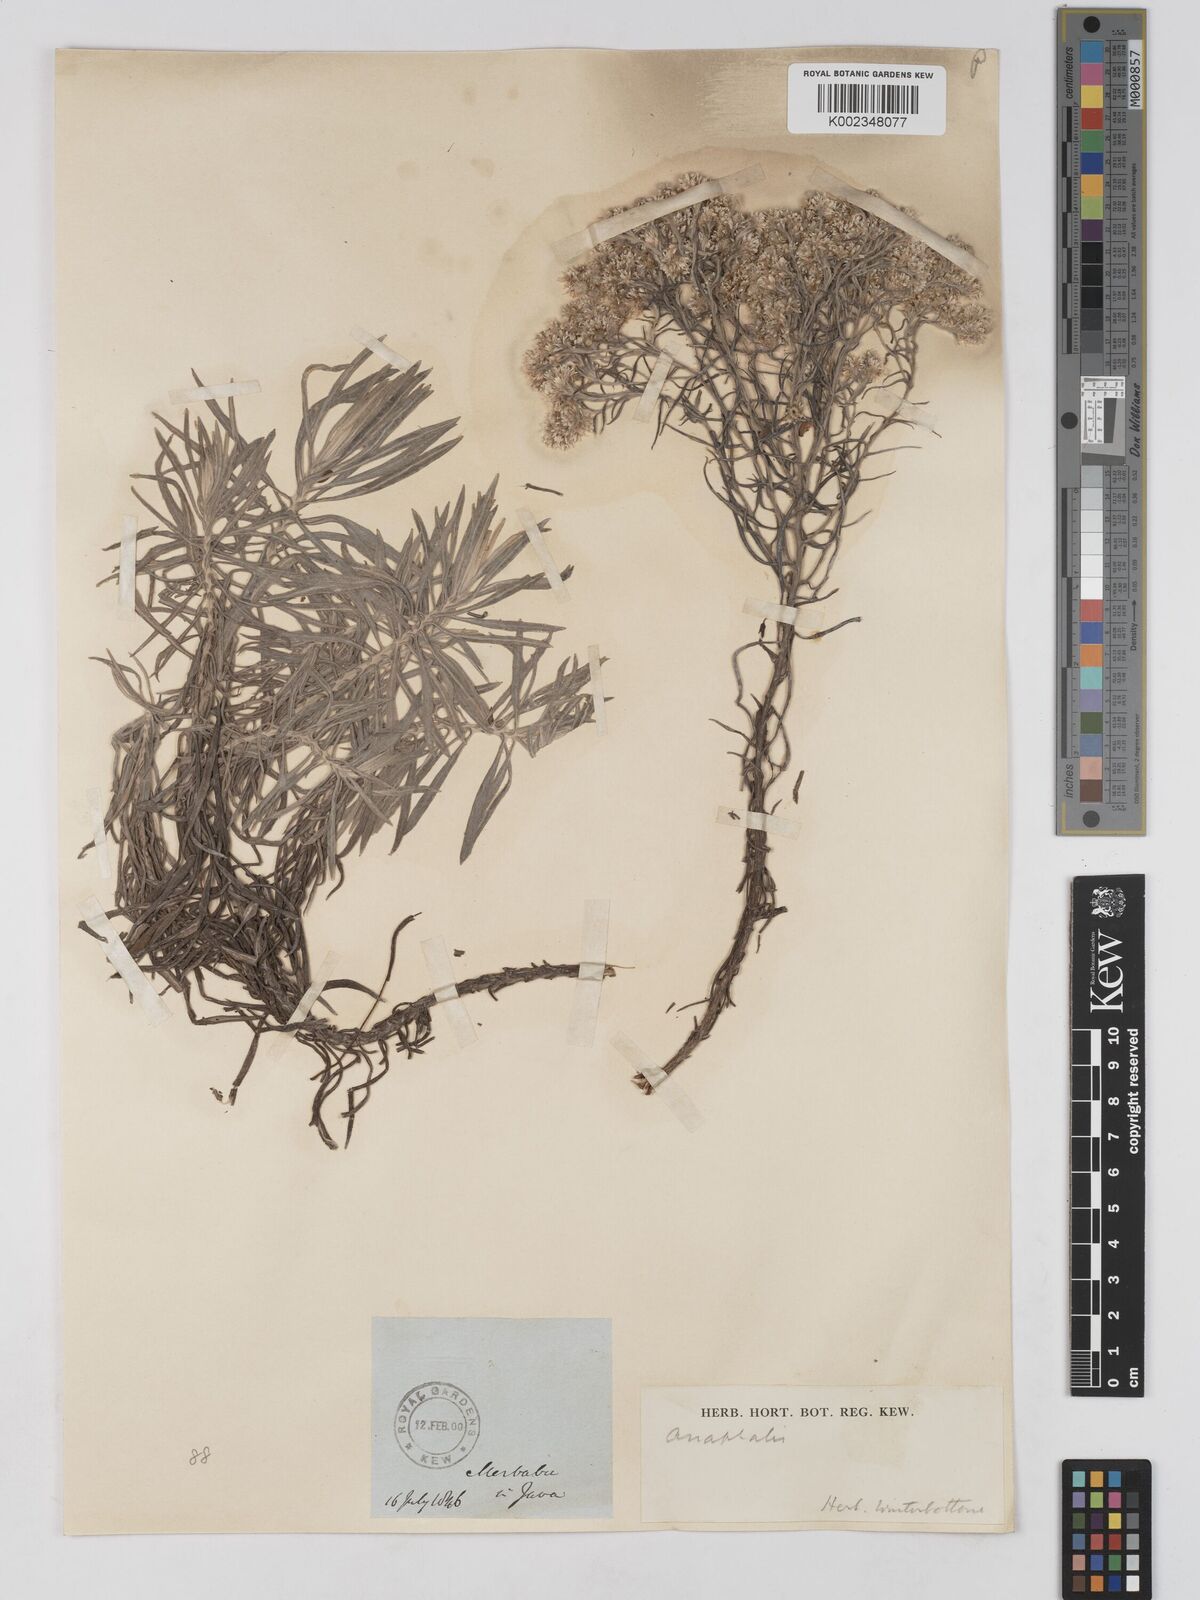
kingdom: Plantae
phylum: Tracheophyta
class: Magnoliopsida
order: Asterales
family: Asteraceae
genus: Anaphalis
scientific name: Anaphalis
